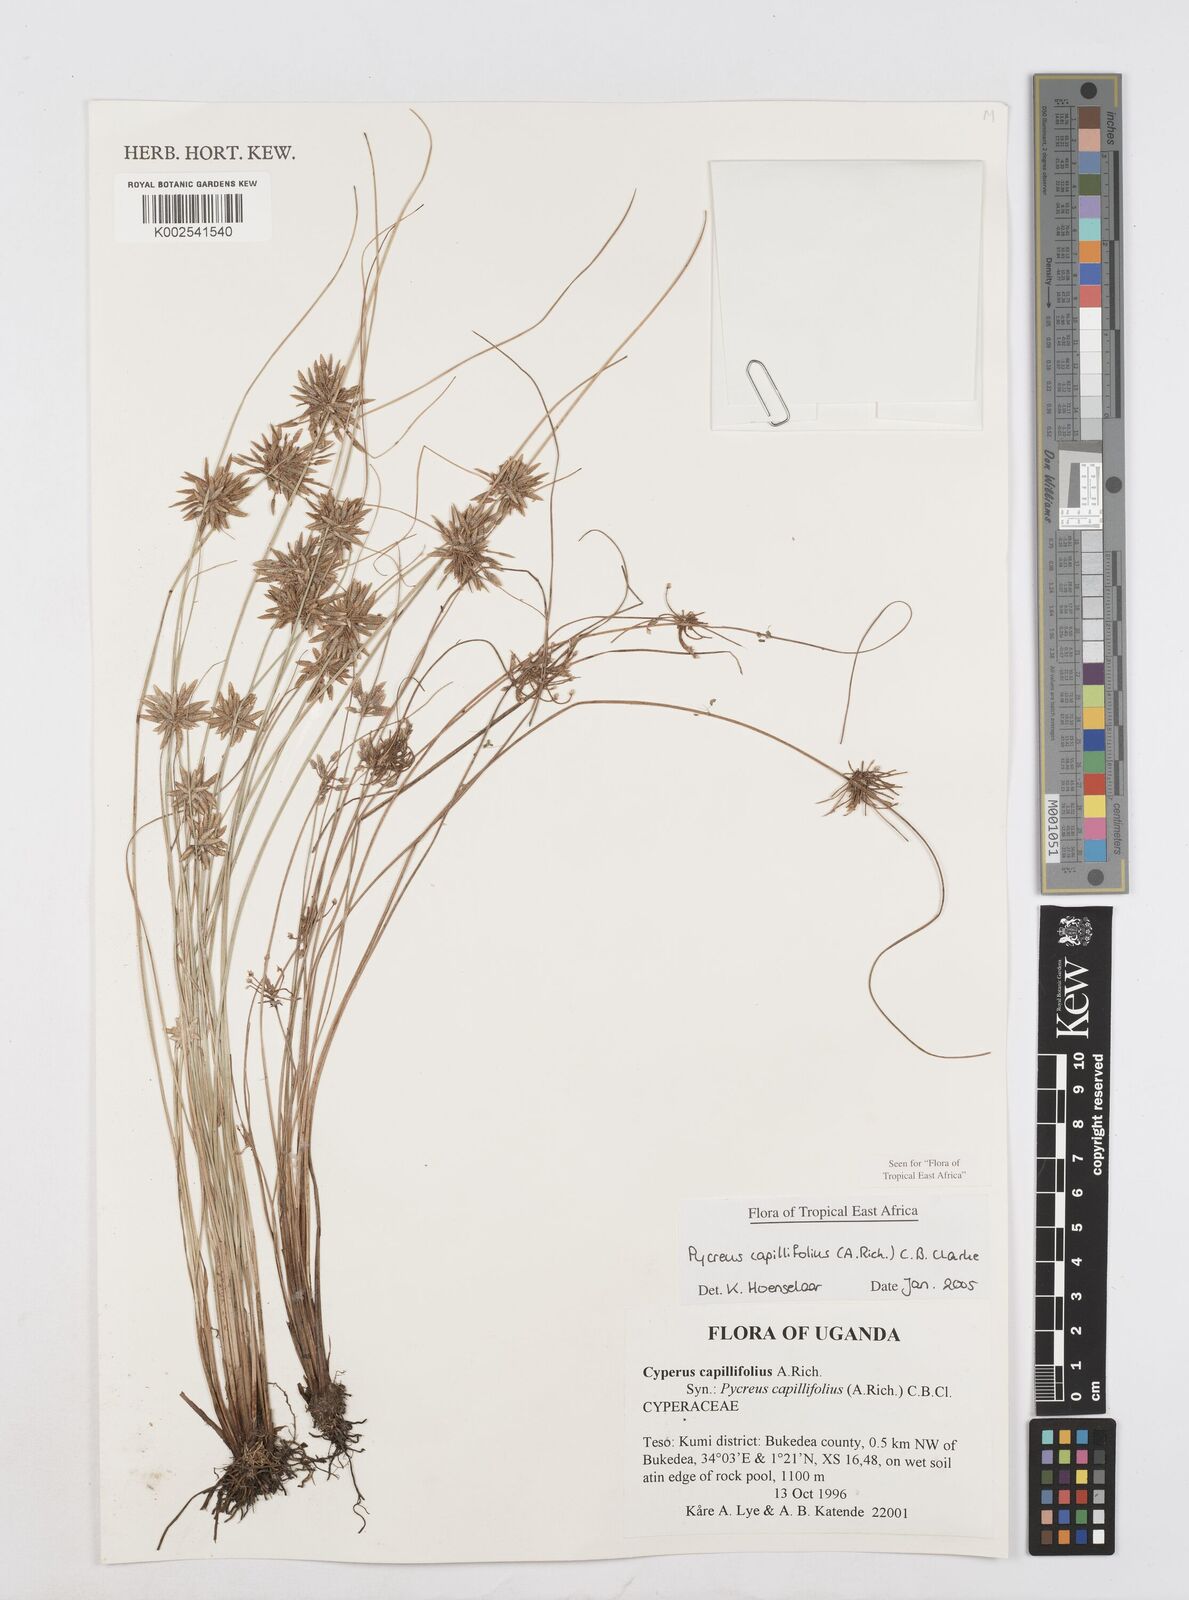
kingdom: Plantae
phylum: Tracheophyta
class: Liliopsida
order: Poales
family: Cyperaceae
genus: Cyperus
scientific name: Cyperus capillifolius
